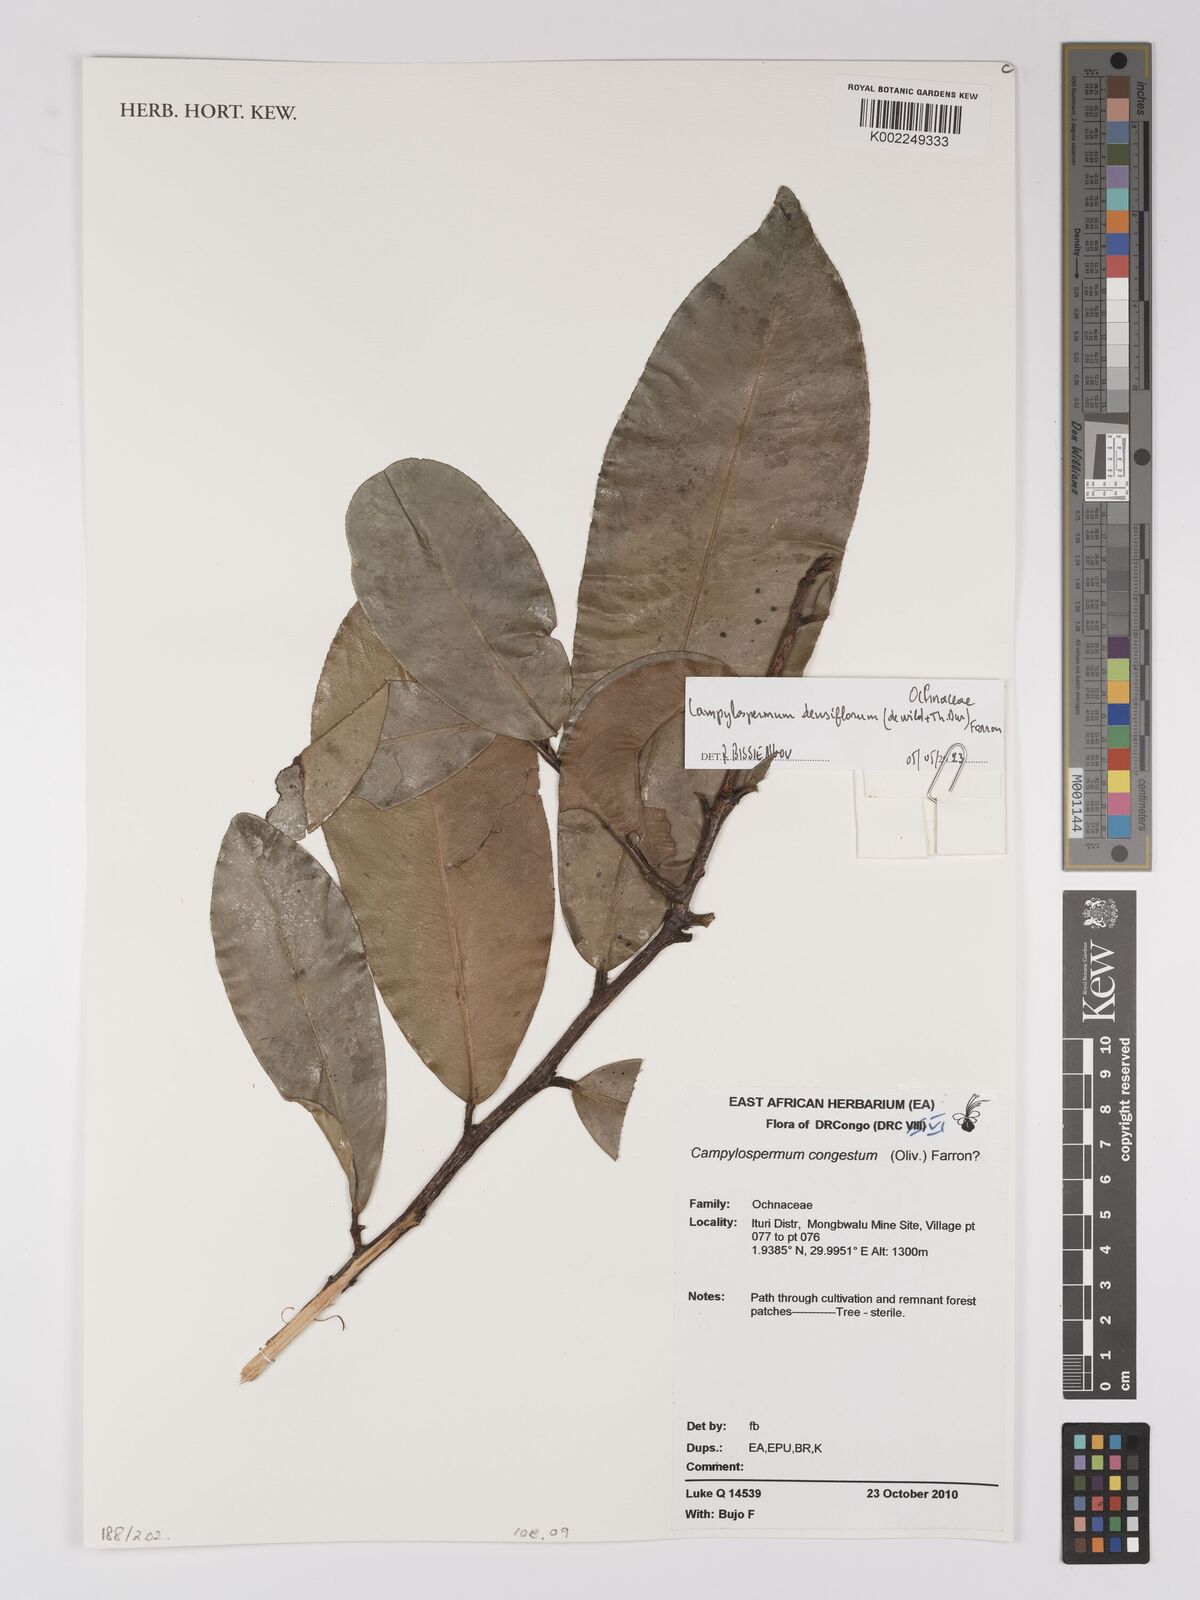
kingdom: Plantae
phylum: Tracheophyta
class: Magnoliopsida
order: Malpighiales
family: Ochnaceae
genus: Gomphia
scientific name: Gomphia densiflora
